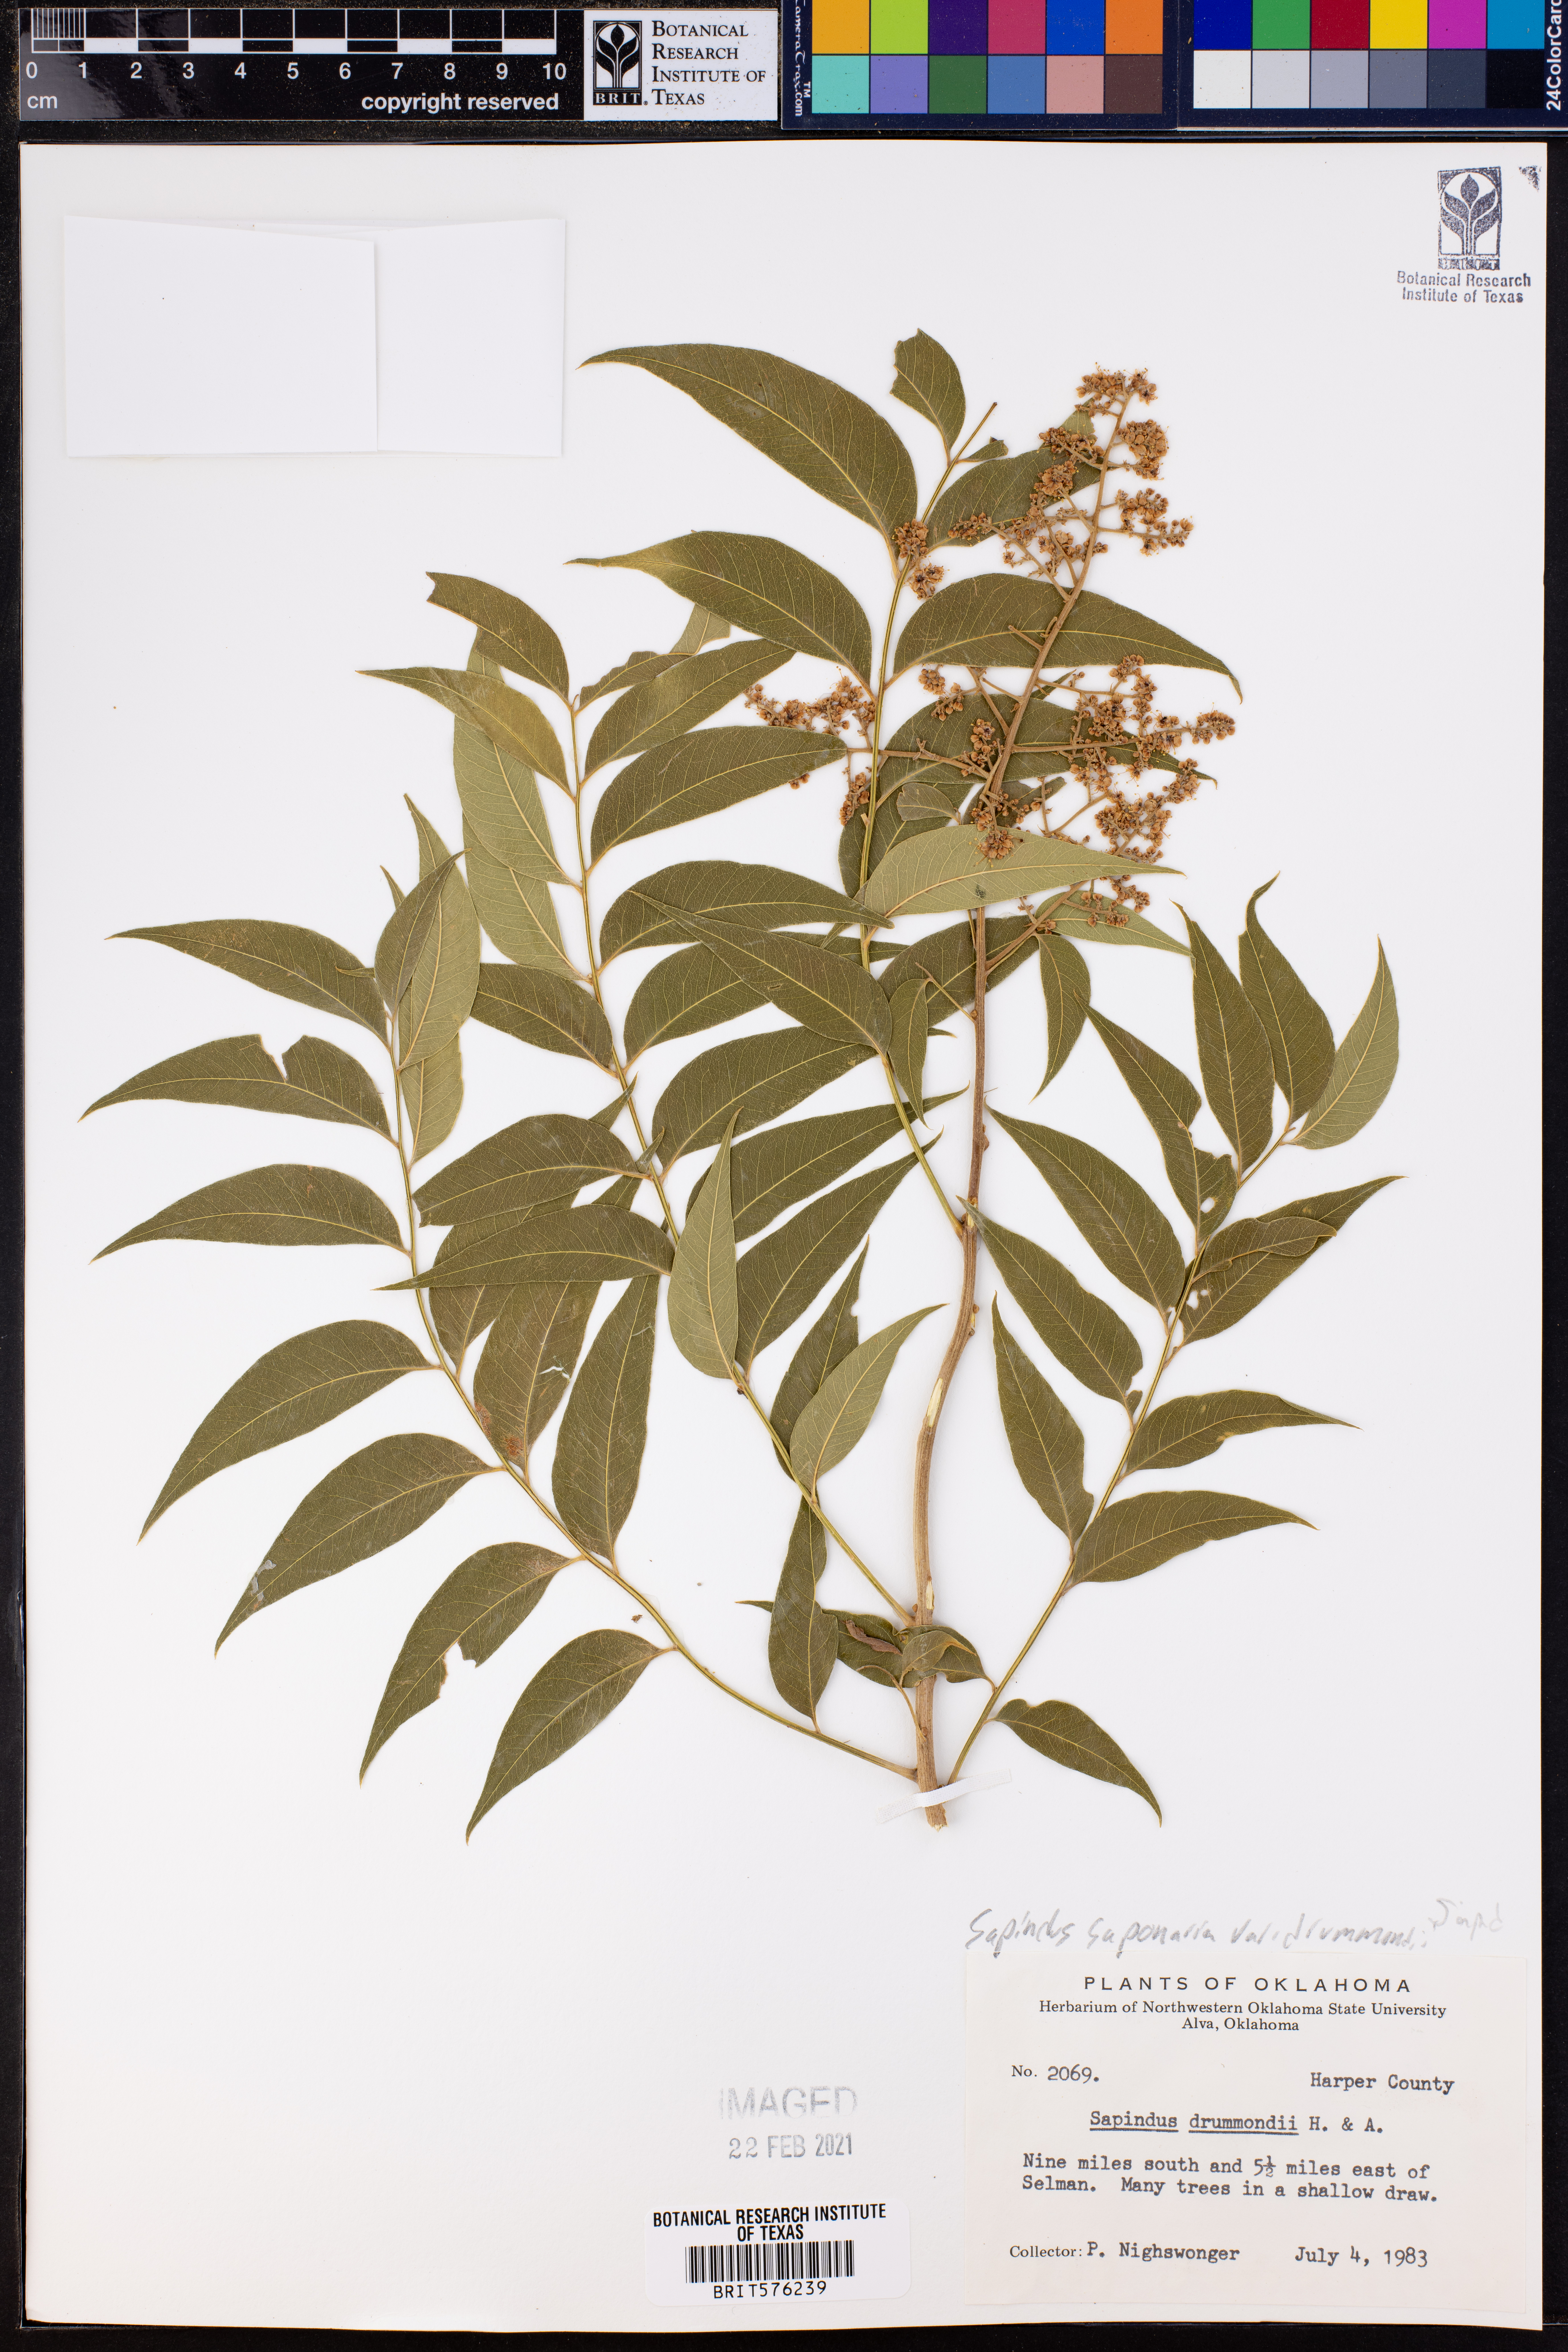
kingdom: Plantae
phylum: Tracheophyta
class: Magnoliopsida
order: Sapindales
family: Sapindaceae
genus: Sapindus
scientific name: Sapindus drummondii
